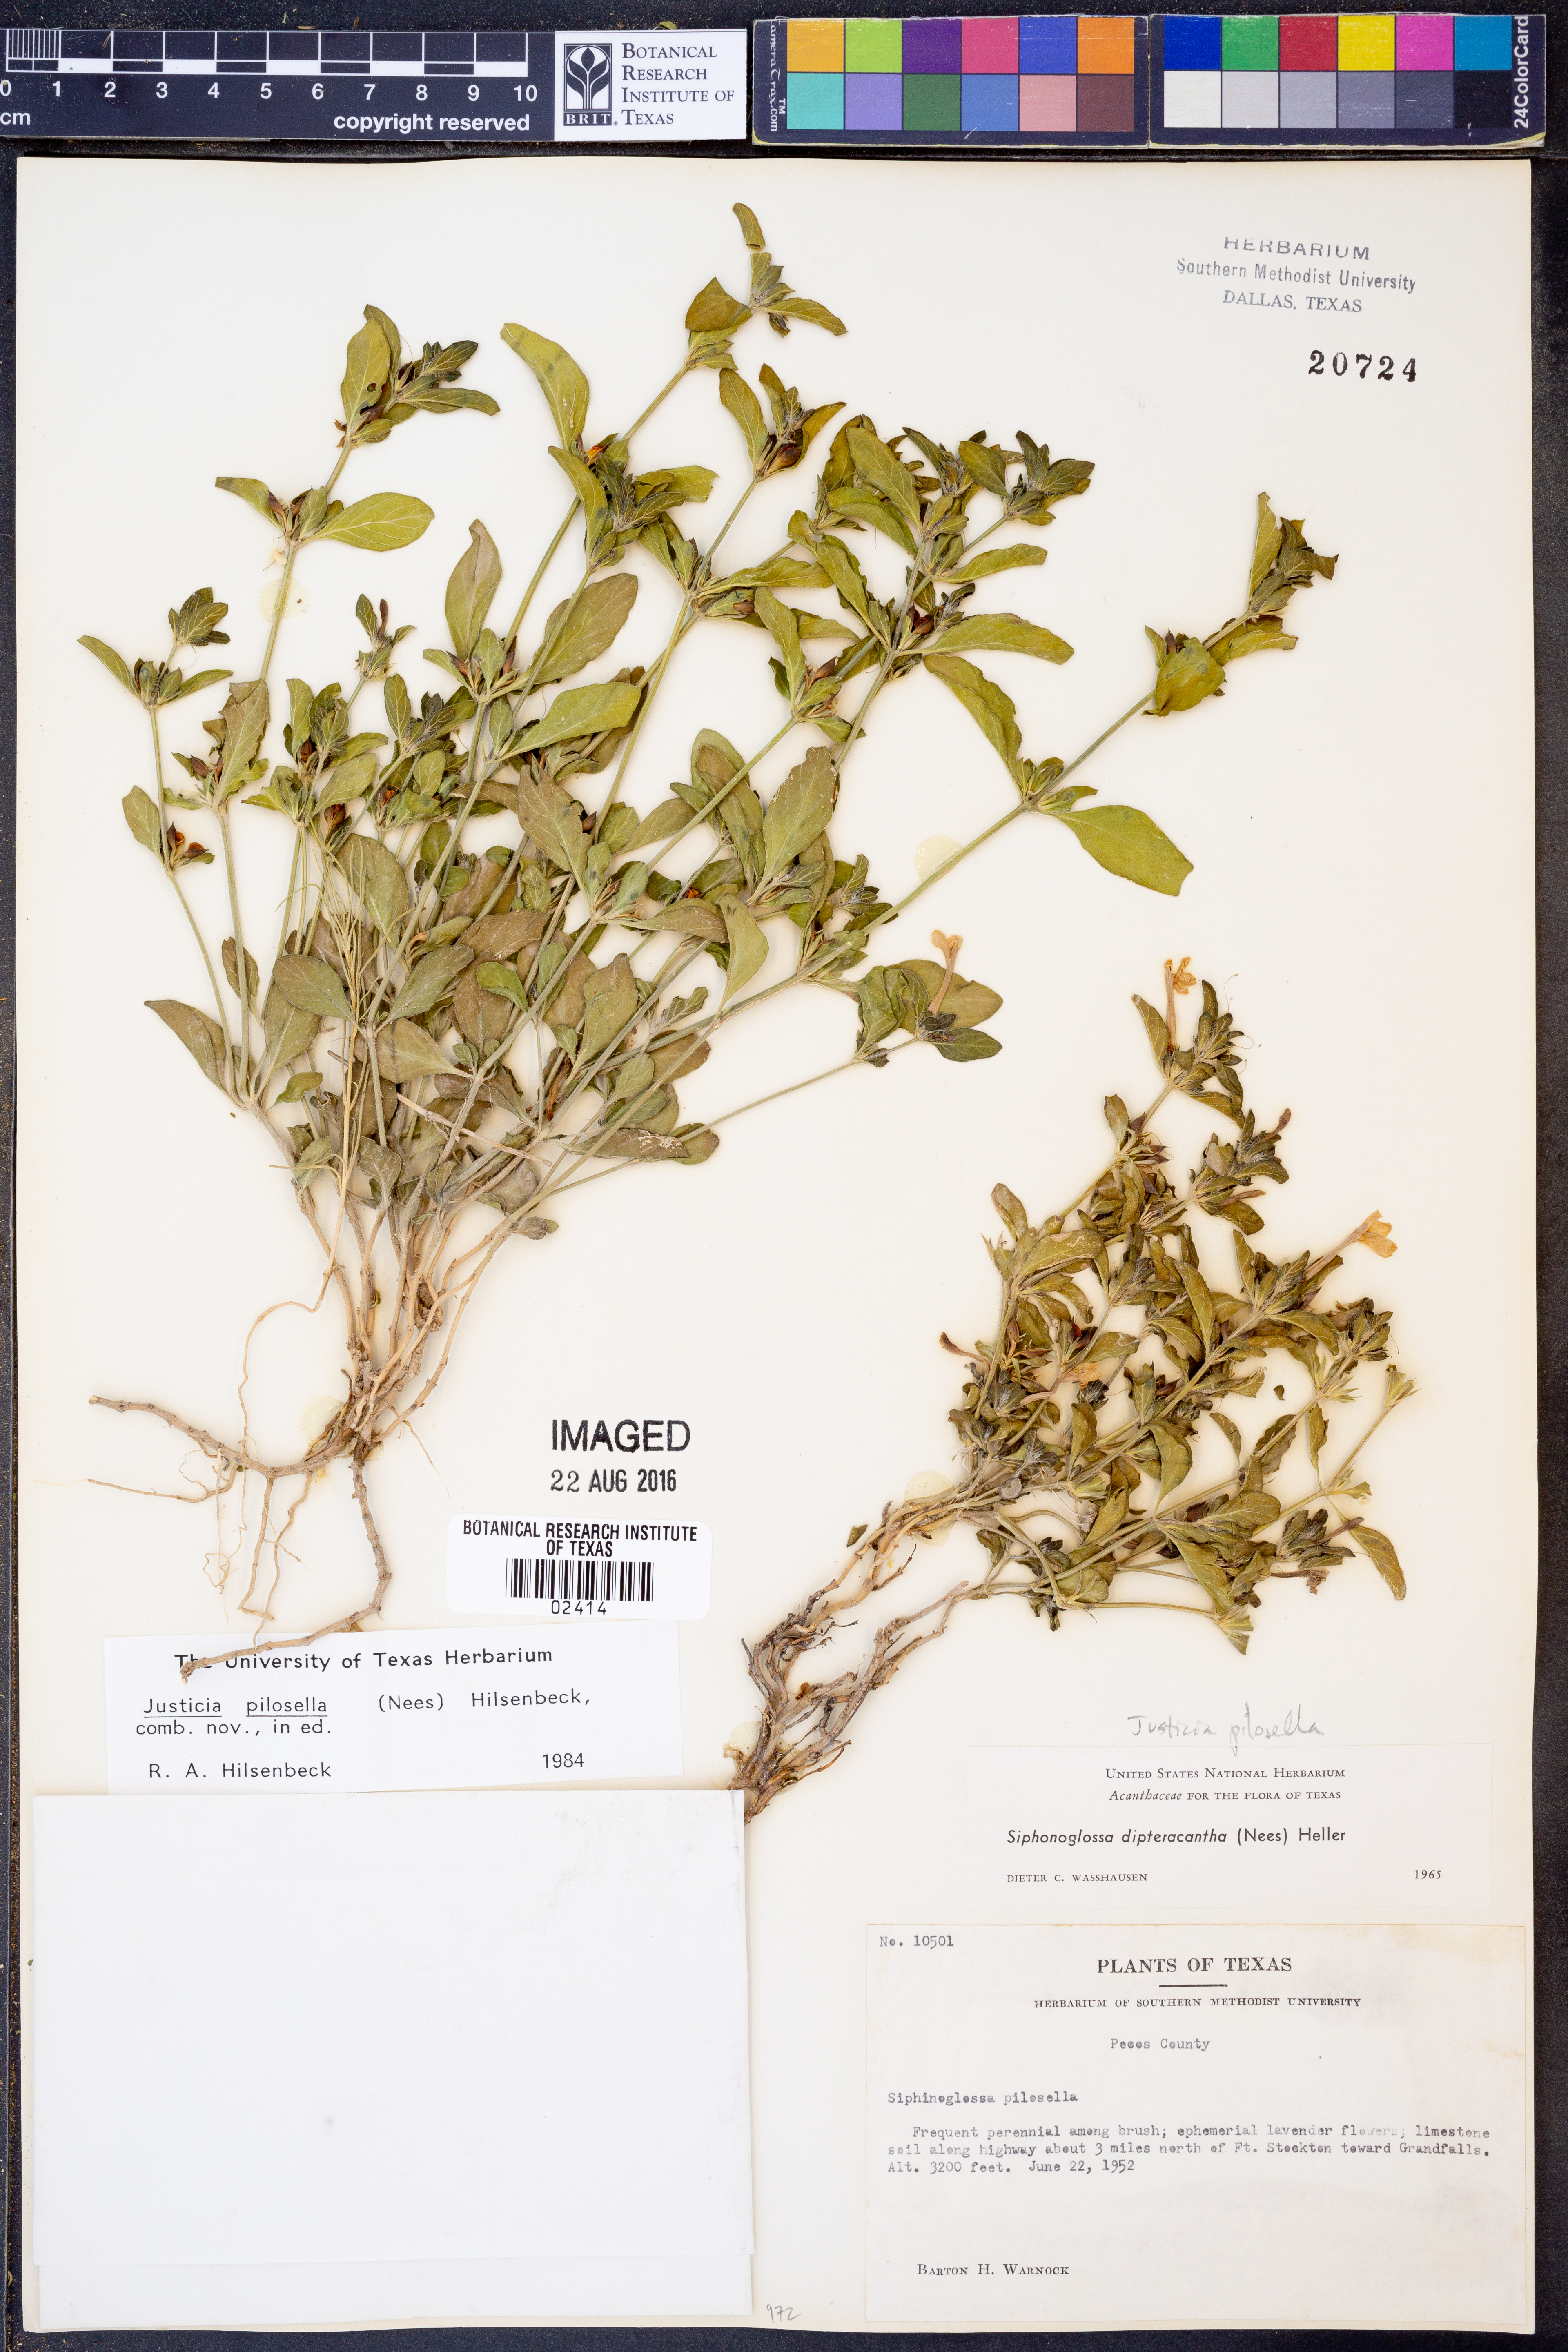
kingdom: Plantae
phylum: Tracheophyta
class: Magnoliopsida
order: Lamiales
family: Acanthaceae
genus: Justicia
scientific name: Justicia pilosella
